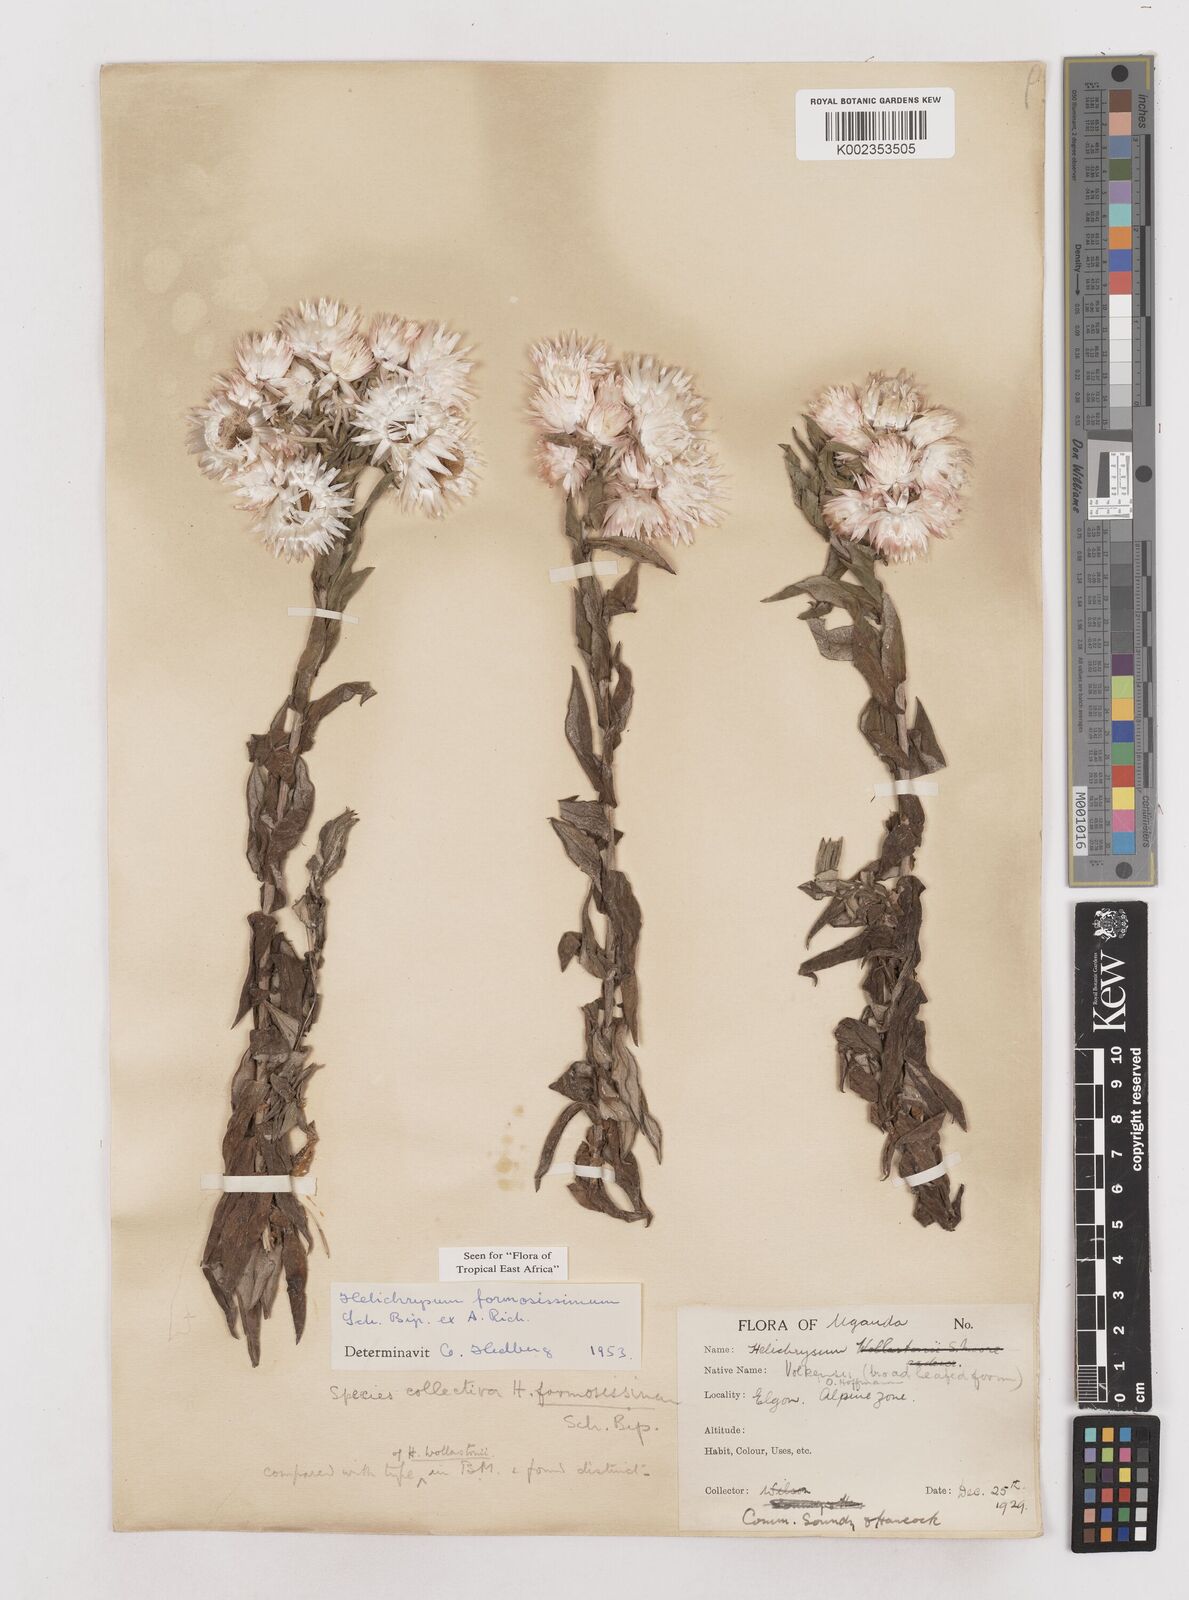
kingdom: Plantae
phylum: Tracheophyta
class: Magnoliopsida
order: Asterales
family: Asteraceae
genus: Helichrysum
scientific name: Helichrysum formosissimum
